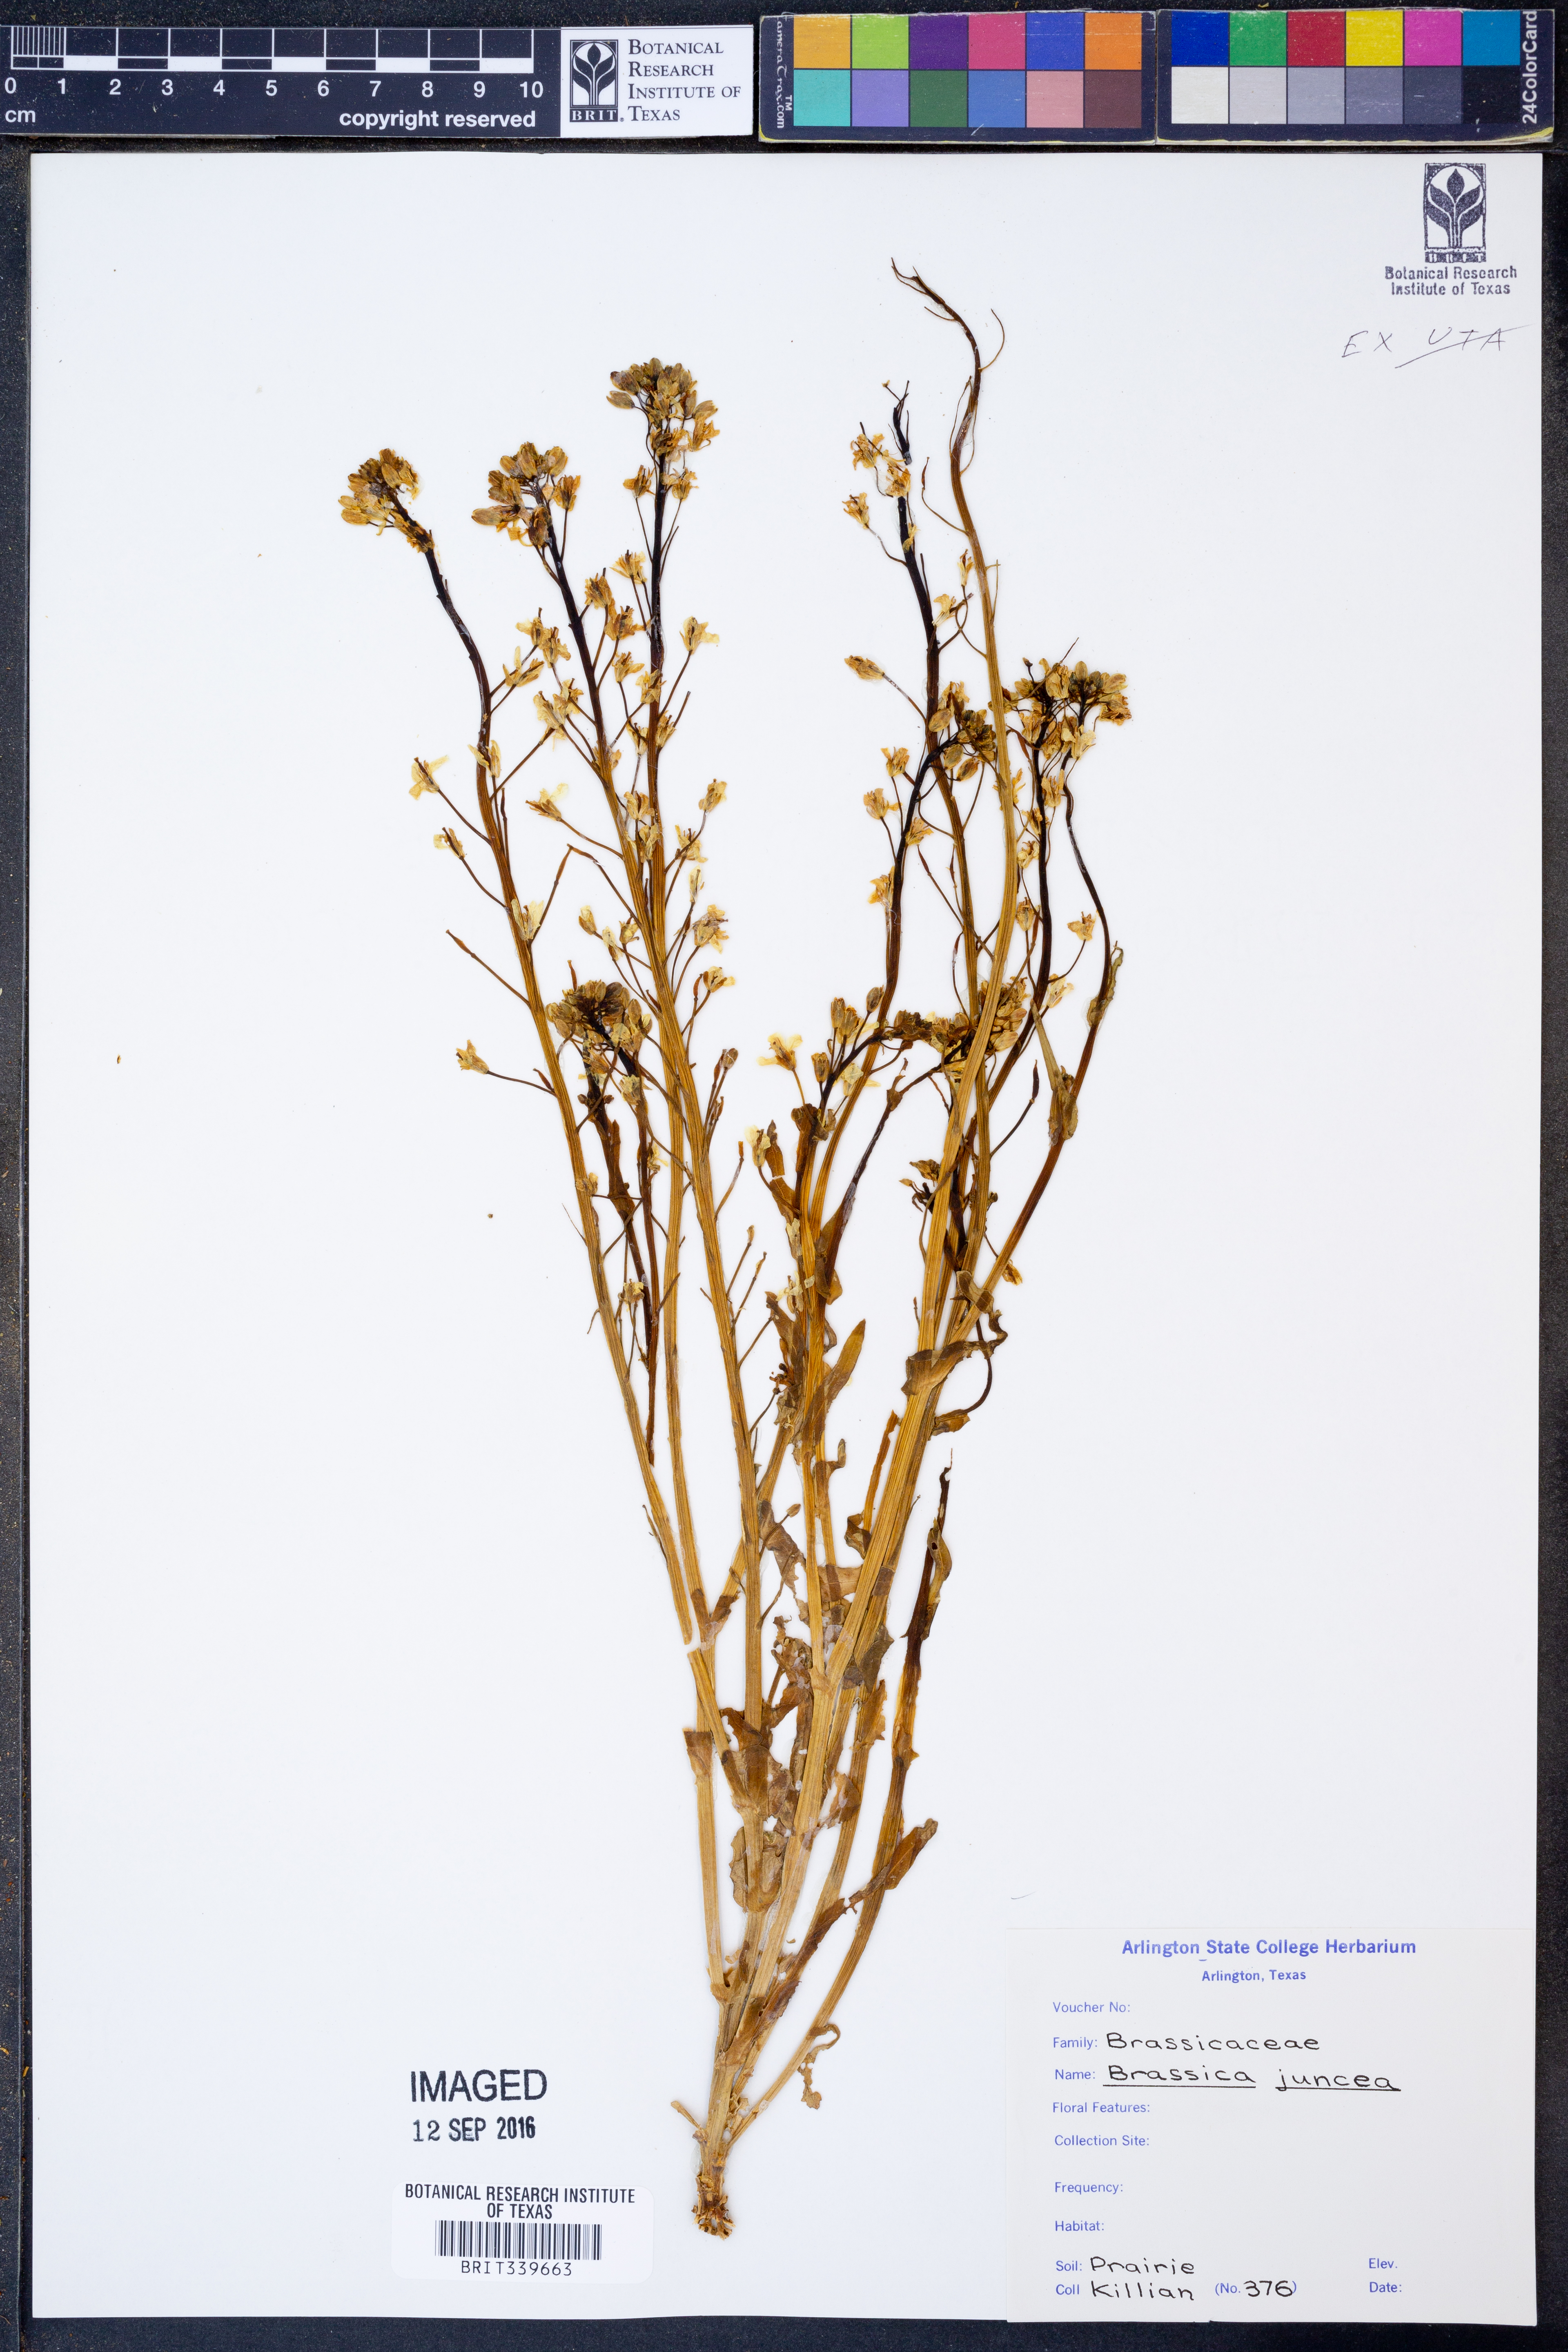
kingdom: Plantae
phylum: Tracheophyta
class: Magnoliopsida
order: Brassicales
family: Brassicaceae
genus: Brassica
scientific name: Brassica juncea
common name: Brown mustard
